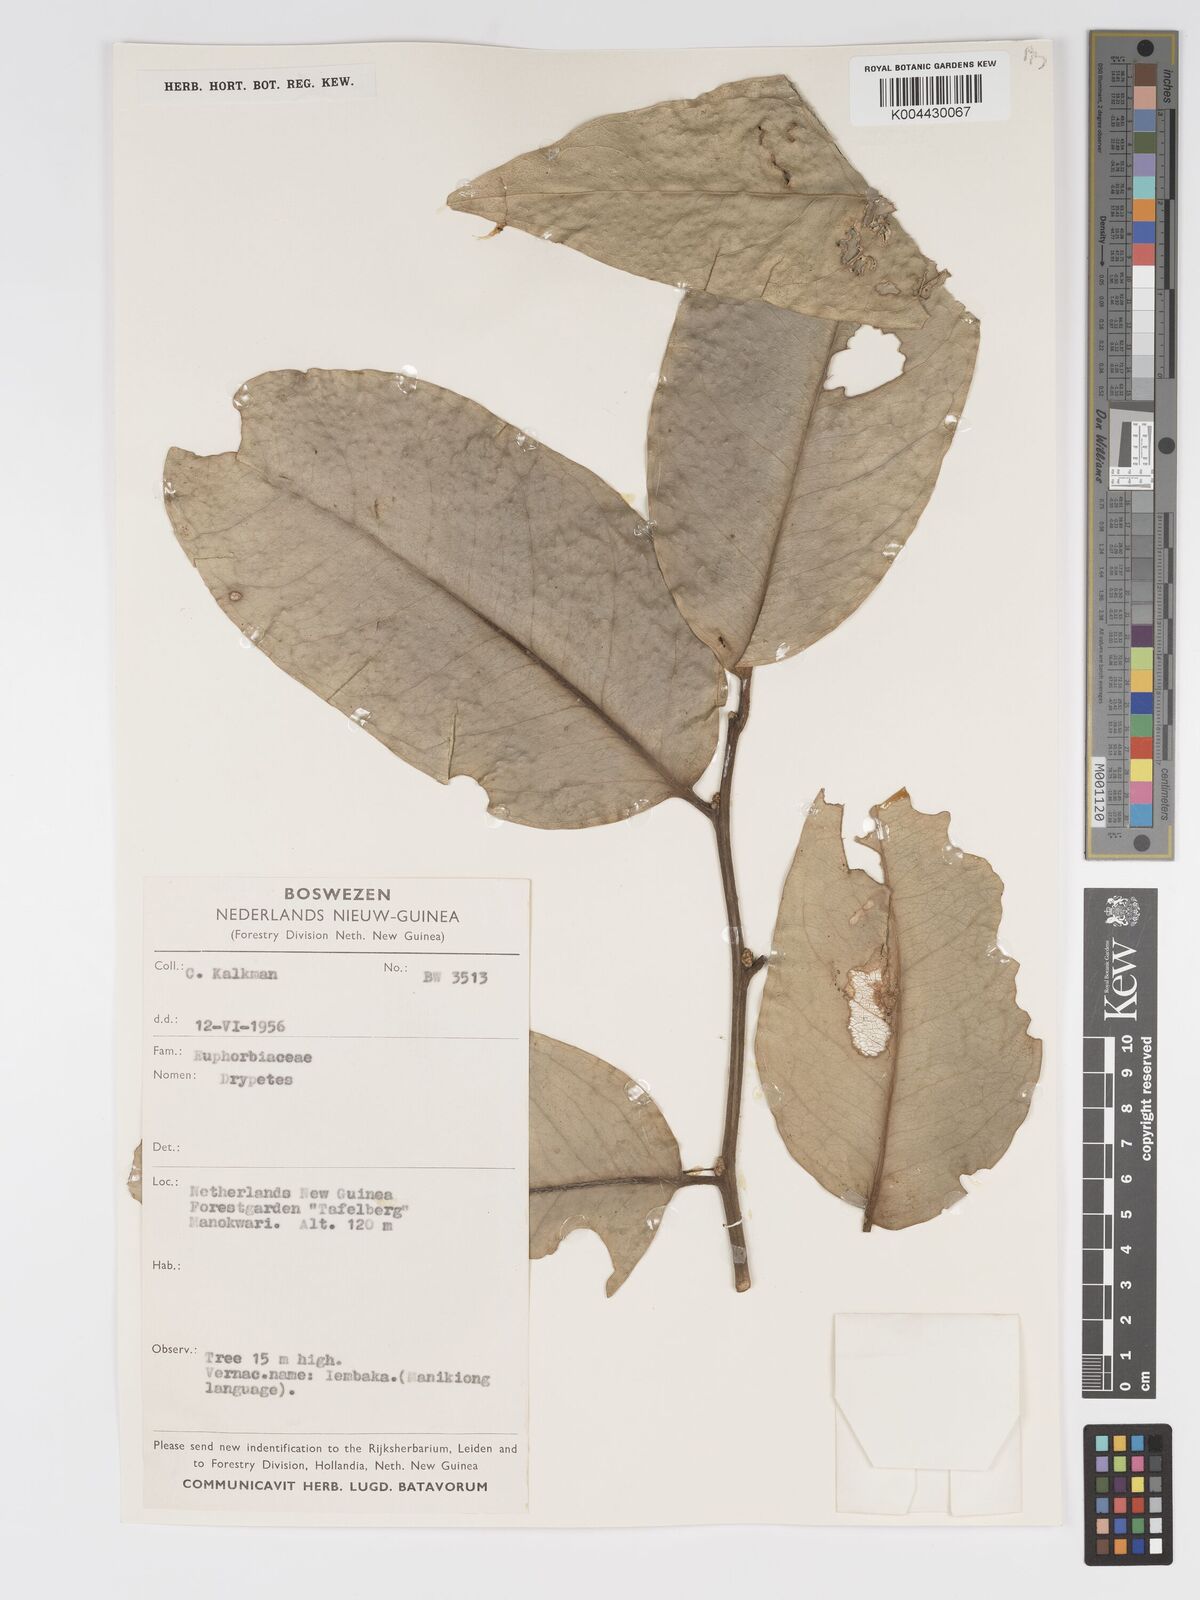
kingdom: Plantae
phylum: Tracheophyta
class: Magnoliopsida
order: Malpighiales
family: Putranjivaceae
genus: Drypetes
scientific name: Drypetes longifolia
